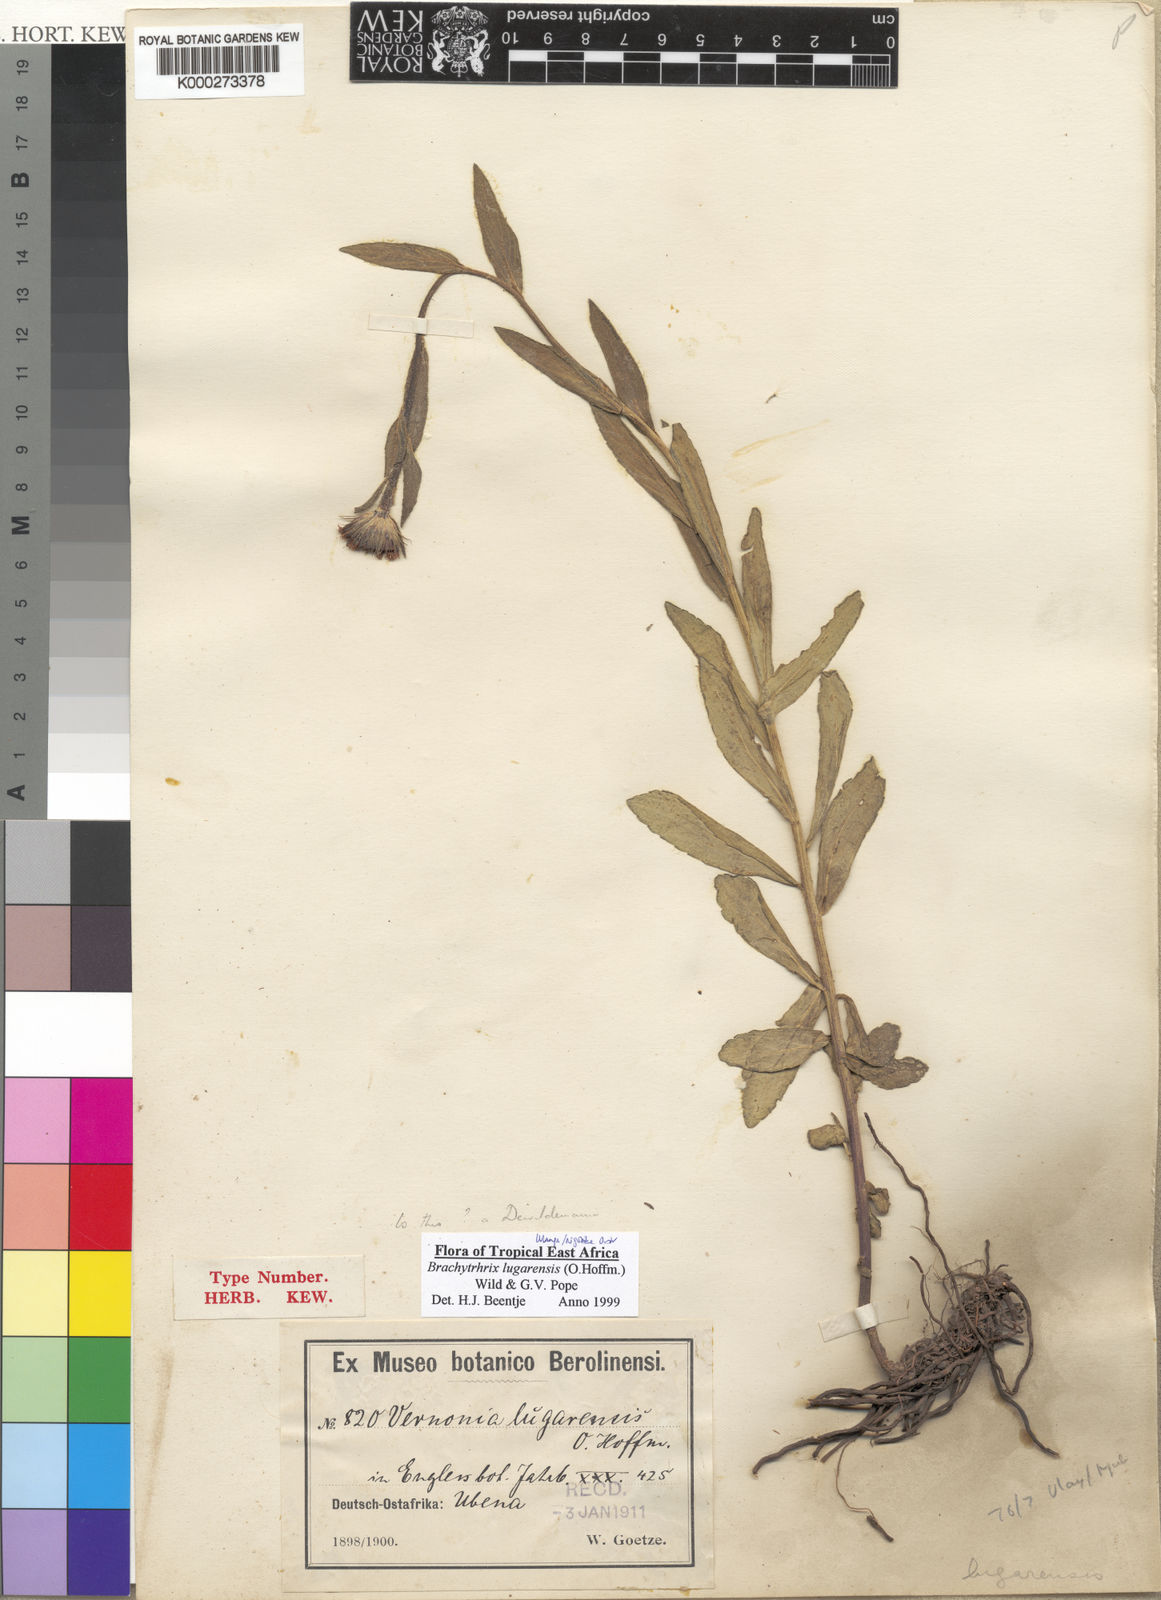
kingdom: Plantae
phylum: Tracheophyta
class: Magnoliopsida
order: Asterales
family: Asteraceae
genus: Brachythrix
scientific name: Brachythrix lugarensis
